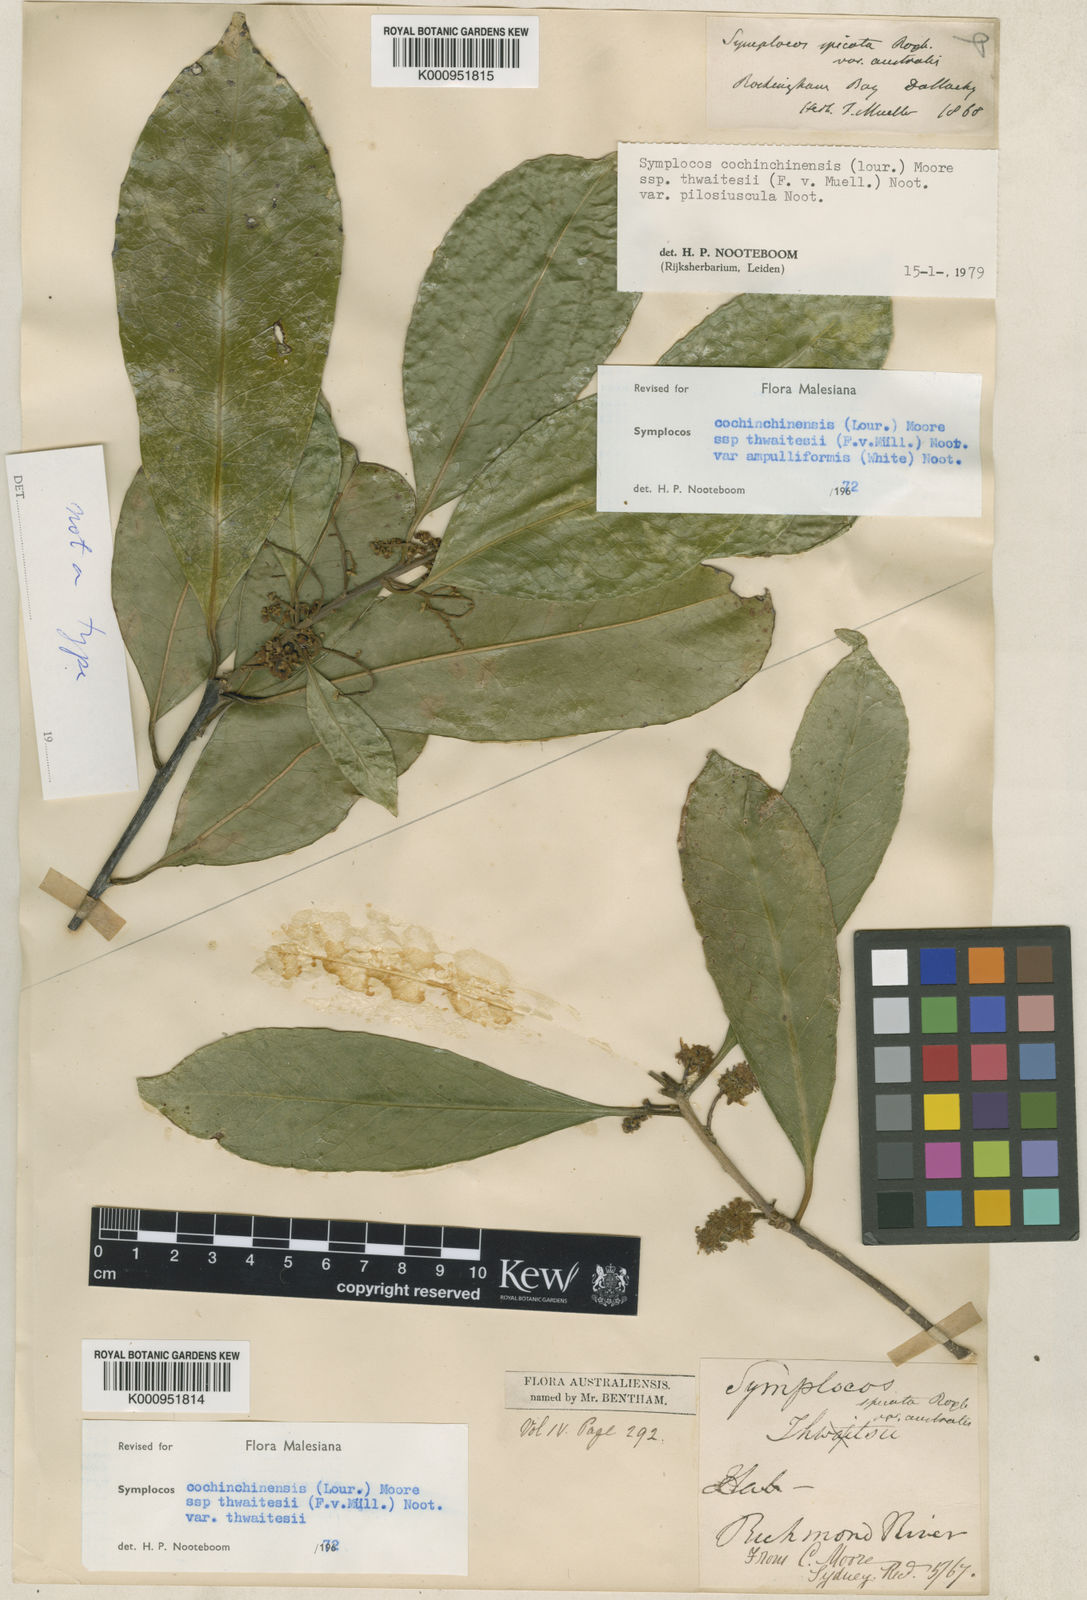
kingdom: Plantae
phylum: Tracheophyta
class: Magnoliopsida
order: Ericales
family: Symplocaceae
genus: Symplocos
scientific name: Symplocos cochinchinensis
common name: Buff hazelwood
